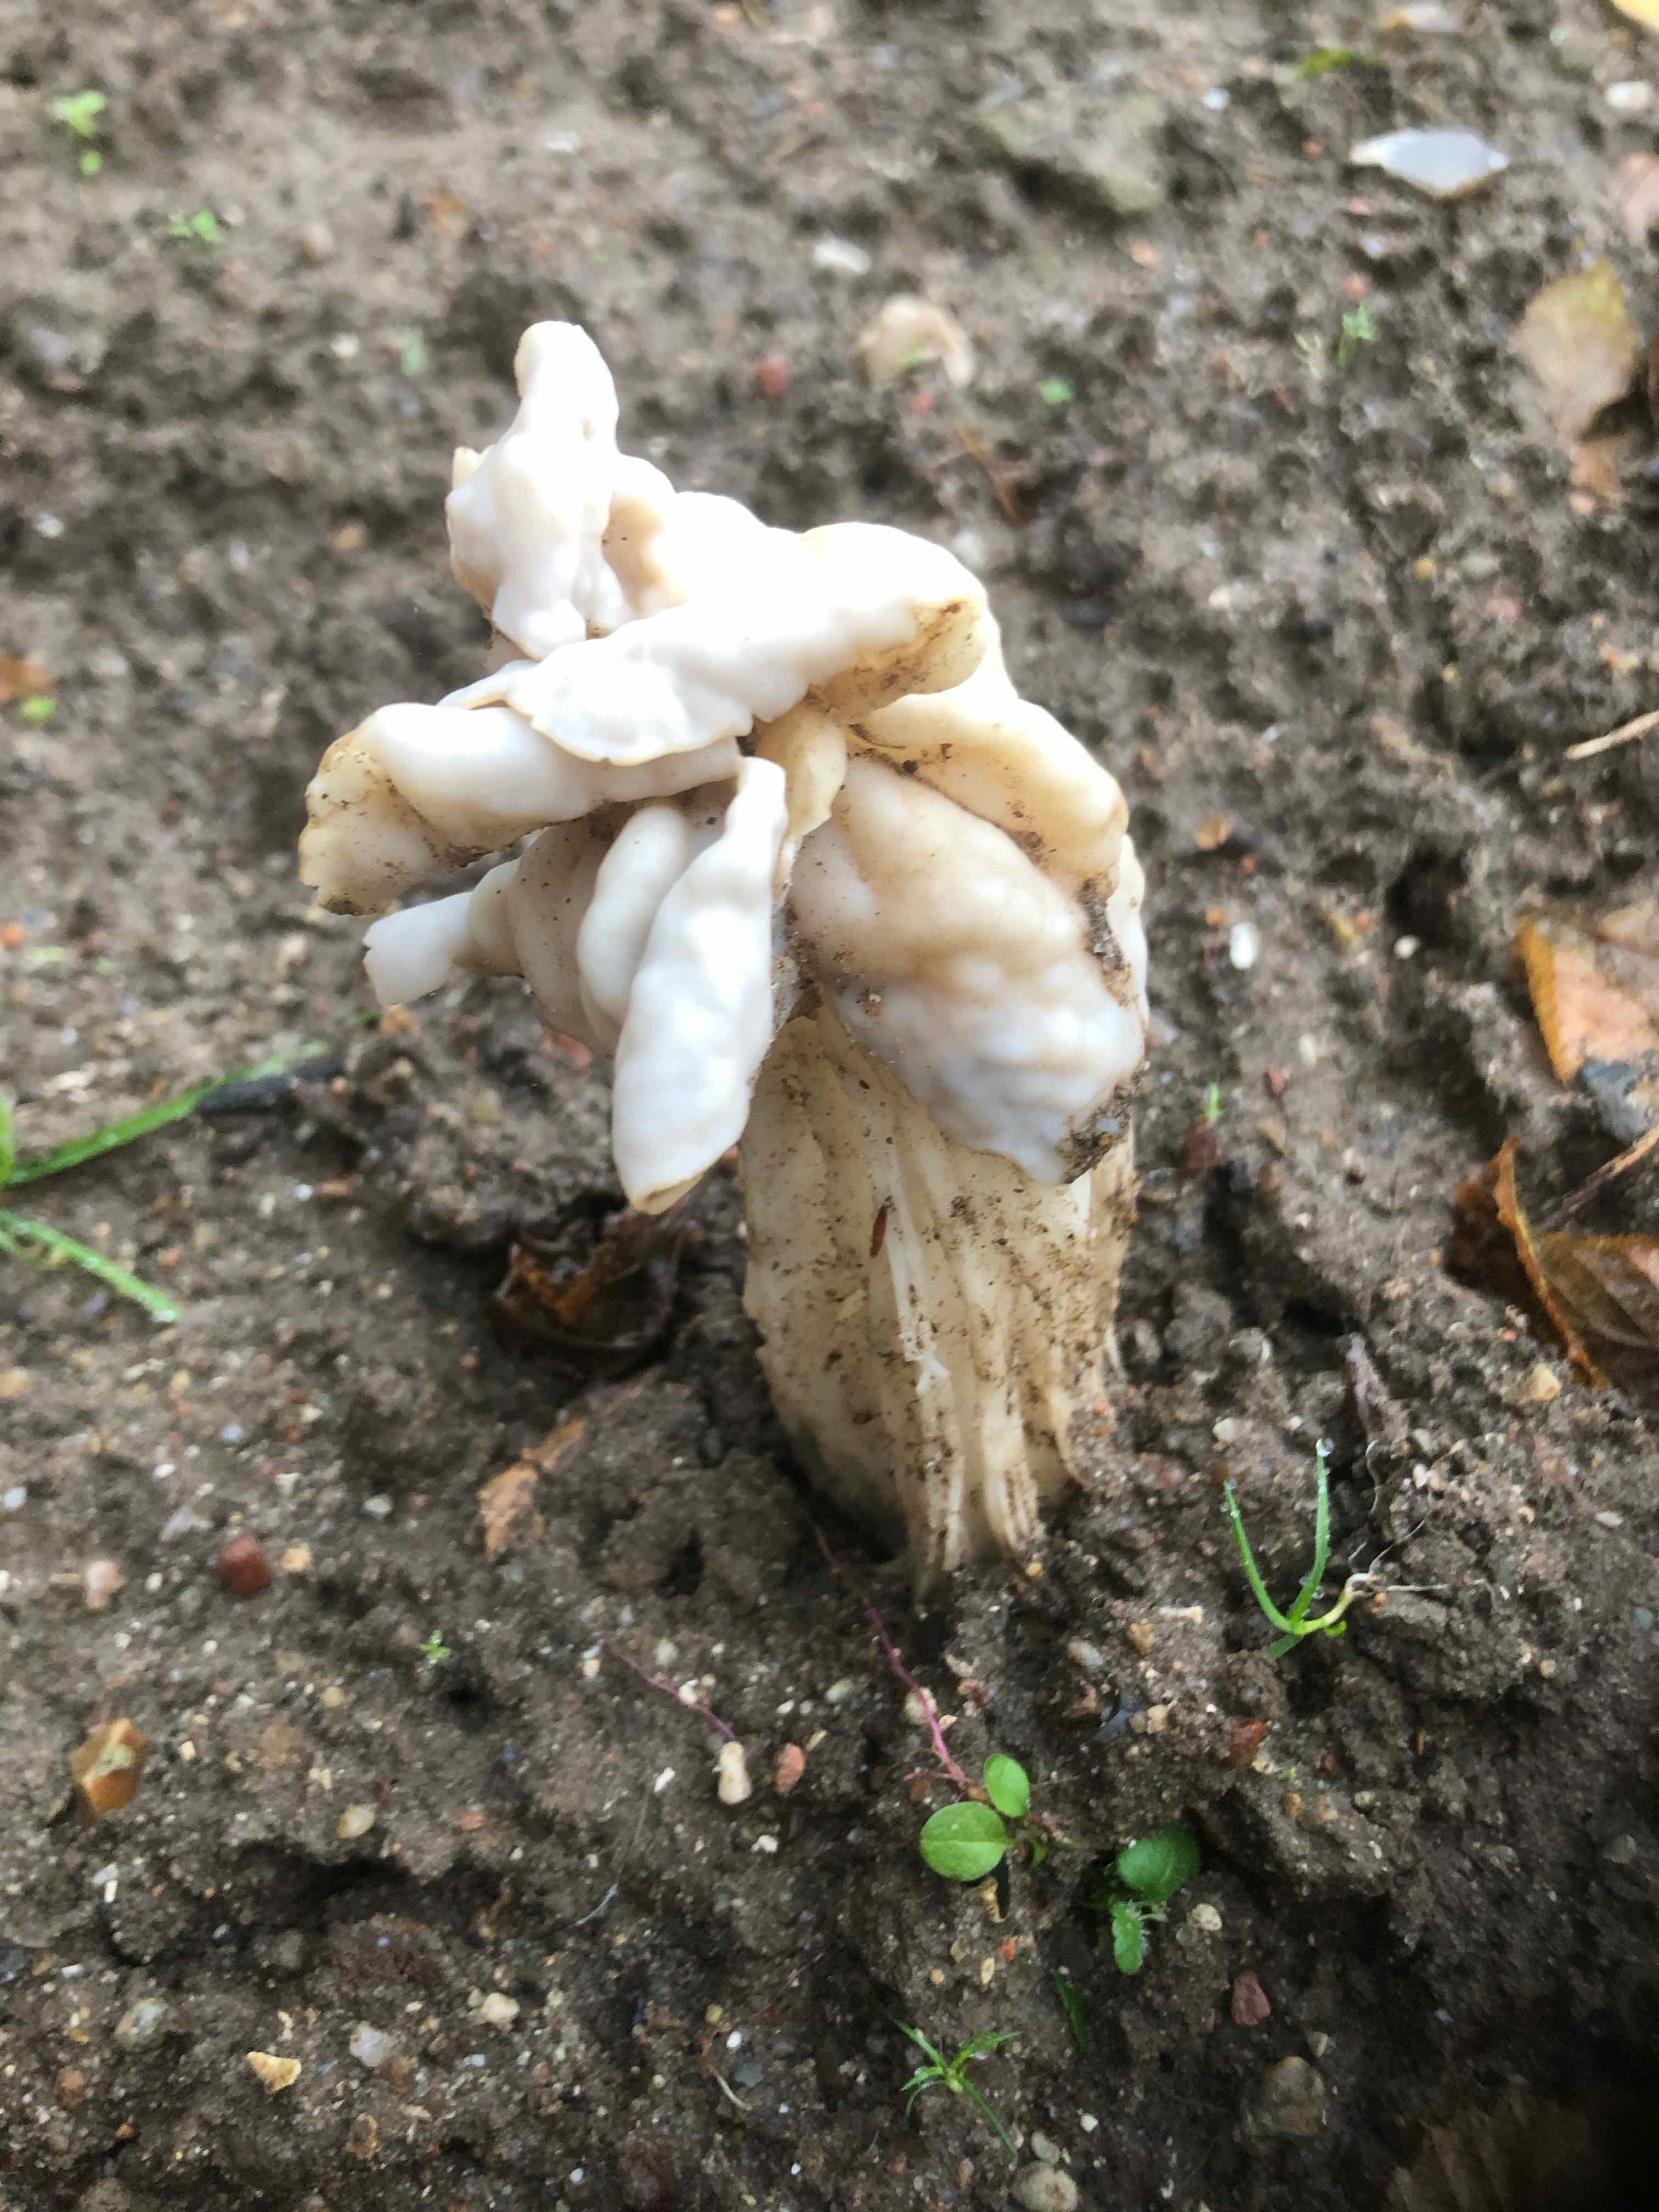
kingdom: Fungi
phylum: Ascomycota
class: Pezizomycetes
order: Pezizales
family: Helvellaceae
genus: Helvella
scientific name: Helvella crispa
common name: kruset foldhat
